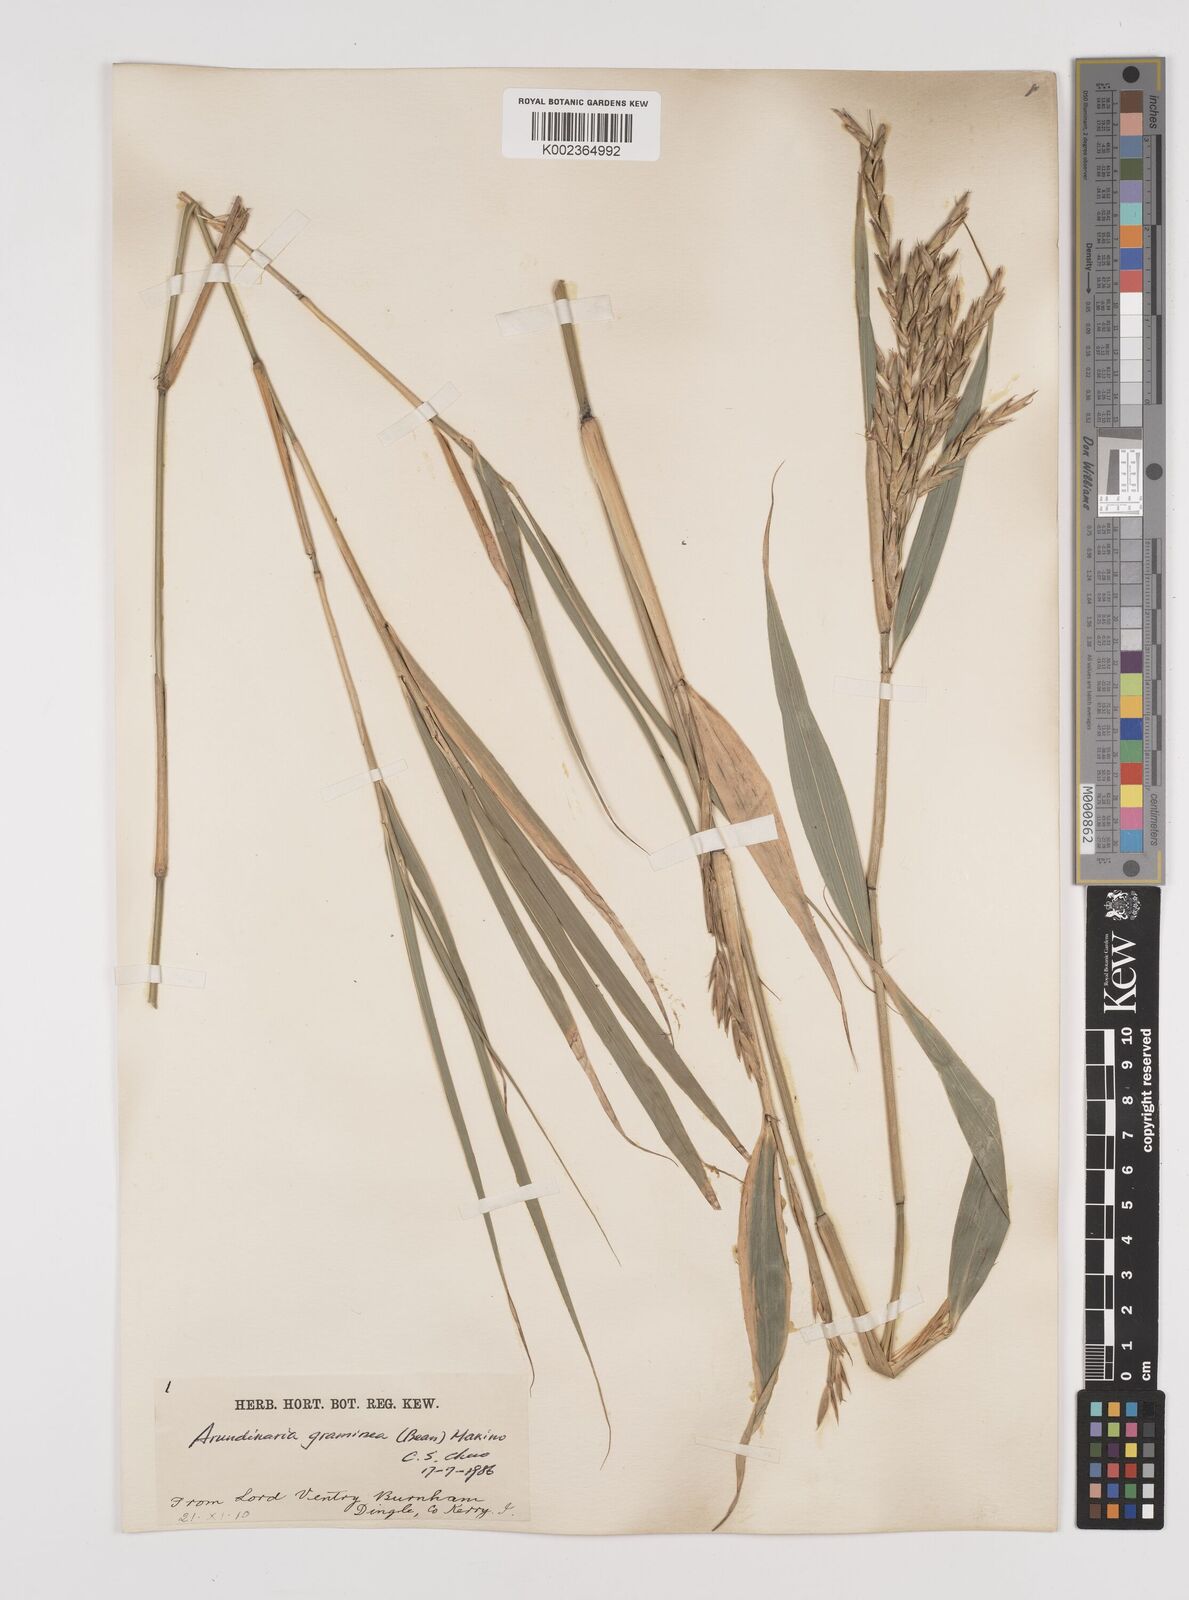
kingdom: Plantae
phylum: Tracheophyta
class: Liliopsida
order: Poales
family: Poaceae
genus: Pleioblastus
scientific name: Pleioblastus gramineus
